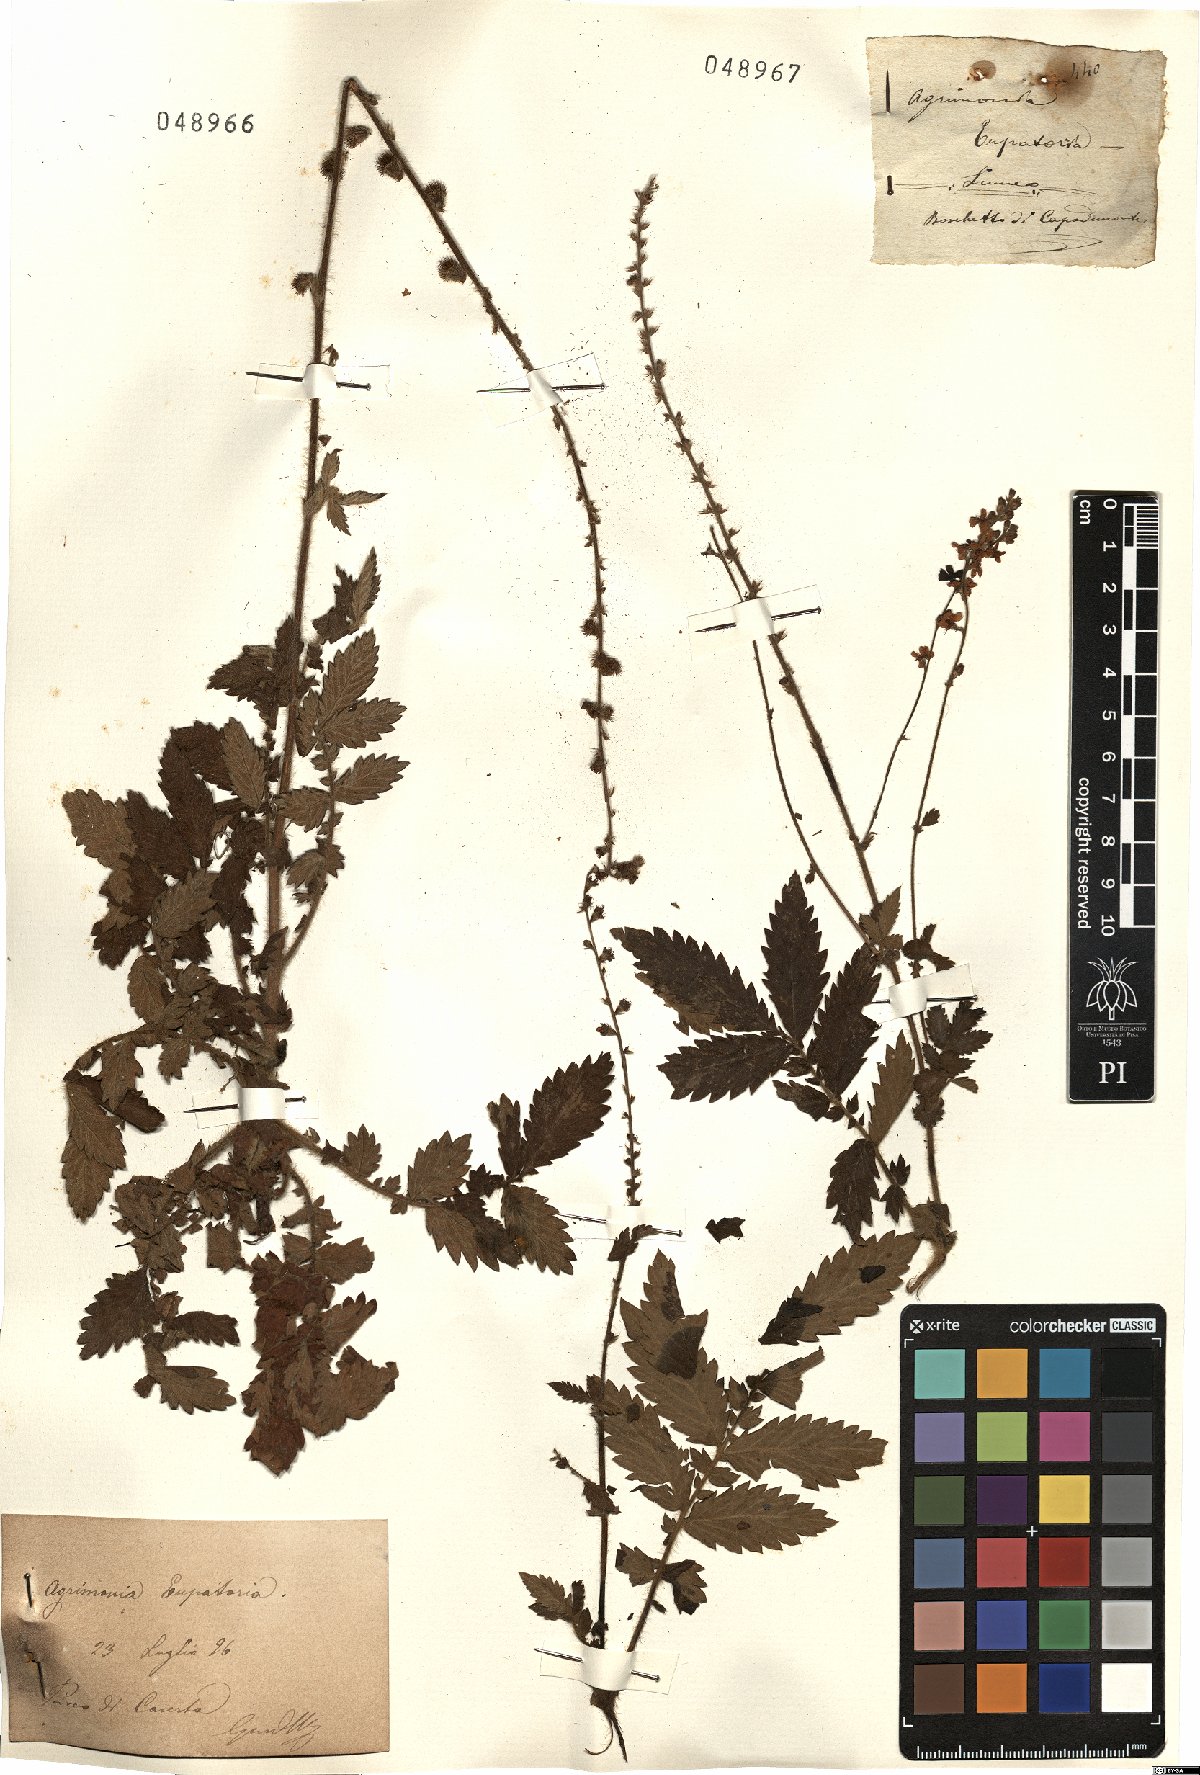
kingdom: Plantae
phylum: Tracheophyta
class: Magnoliopsida
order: Rosales
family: Rosaceae
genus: Agrimonia
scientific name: Agrimonia eupatoria
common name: Agrimony
